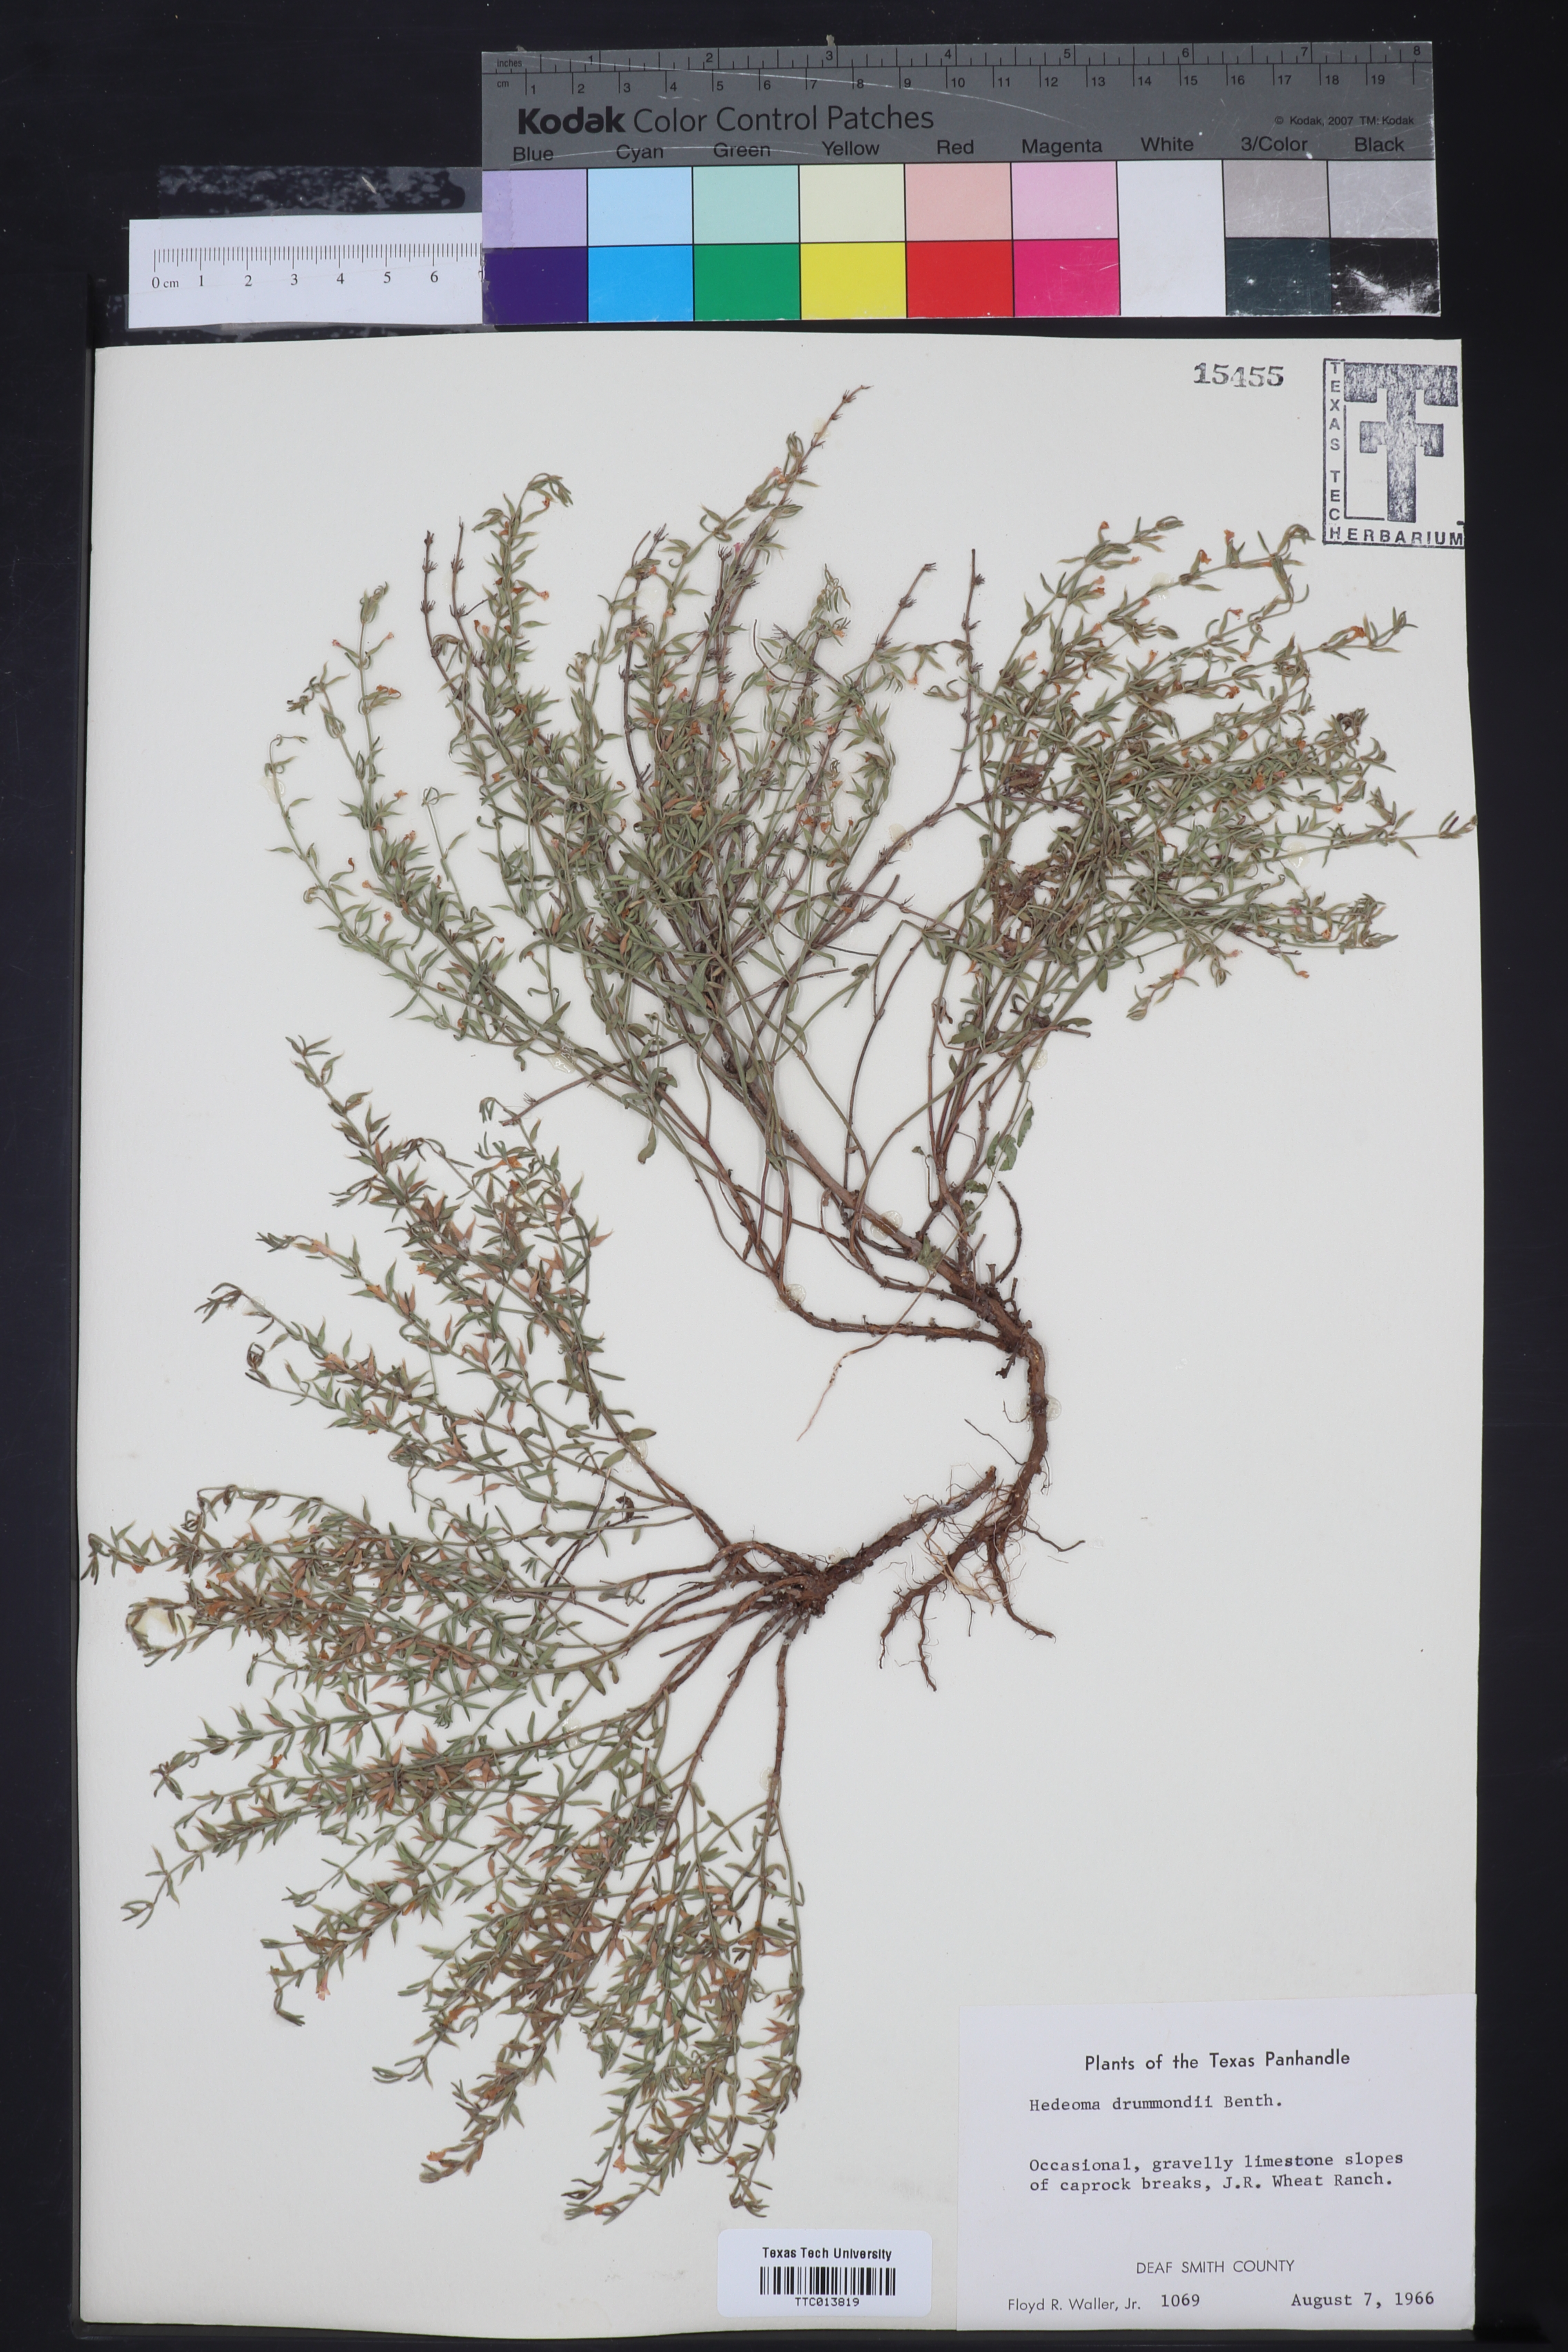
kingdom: Plantae
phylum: Tracheophyta
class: Magnoliopsida
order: Lamiales
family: Lamiaceae
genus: Hedeoma
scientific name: Hedeoma drummondii
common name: New mexico pennyroyal
